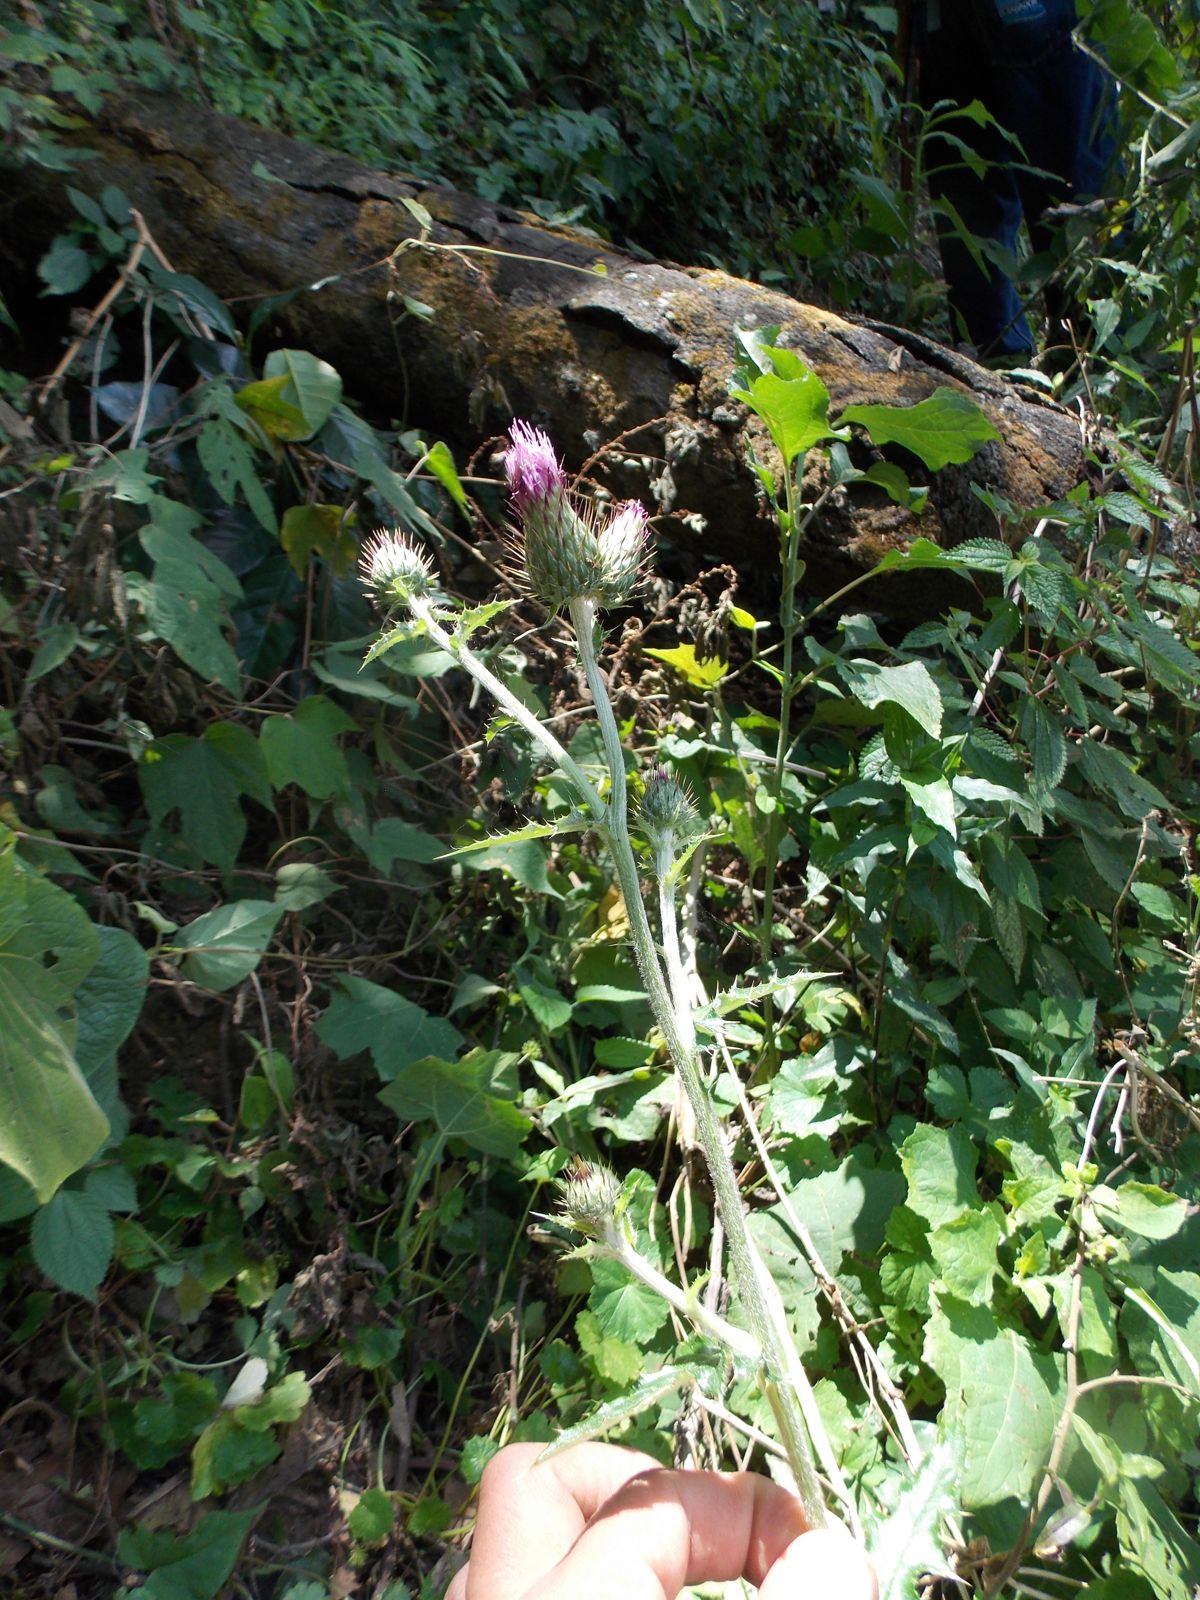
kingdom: Plantae
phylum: Tracheophyta
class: Magnoliopsida
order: Asterales
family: Asteraceae
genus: Cirsium
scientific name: Cirsium mexicanum
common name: Mexican thistle
